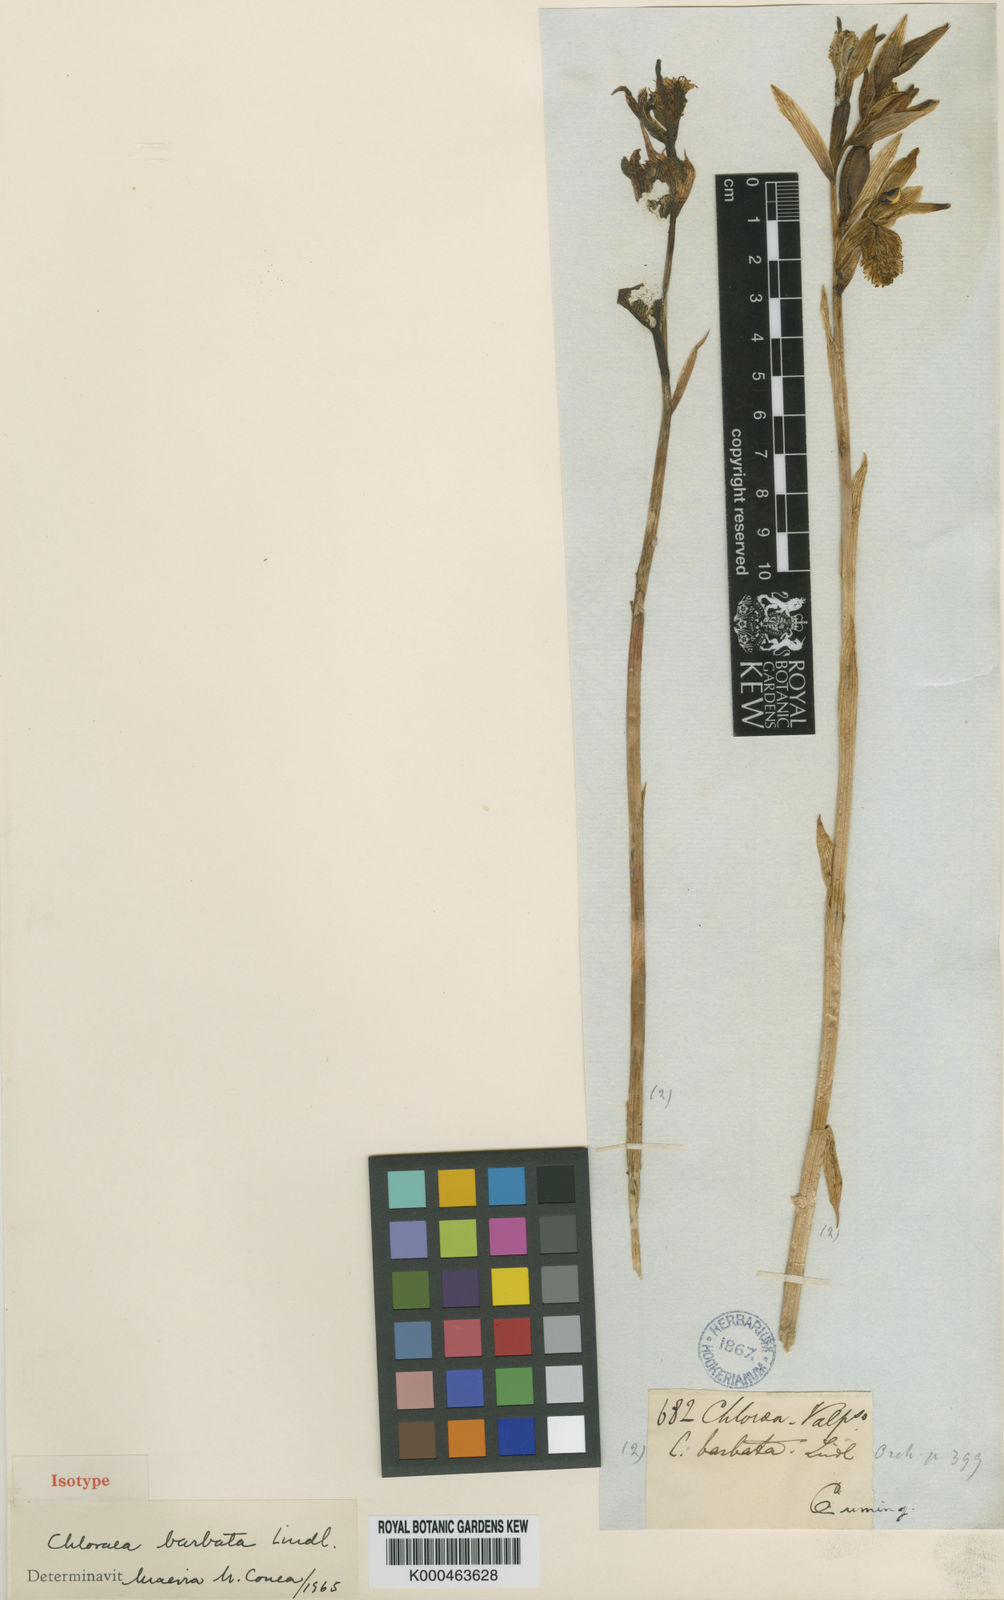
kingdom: Plantae
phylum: Tracheophyta
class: Liliopsida
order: Asparagales
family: Orchidaceae
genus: Chloraea
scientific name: Chloraea barbata
